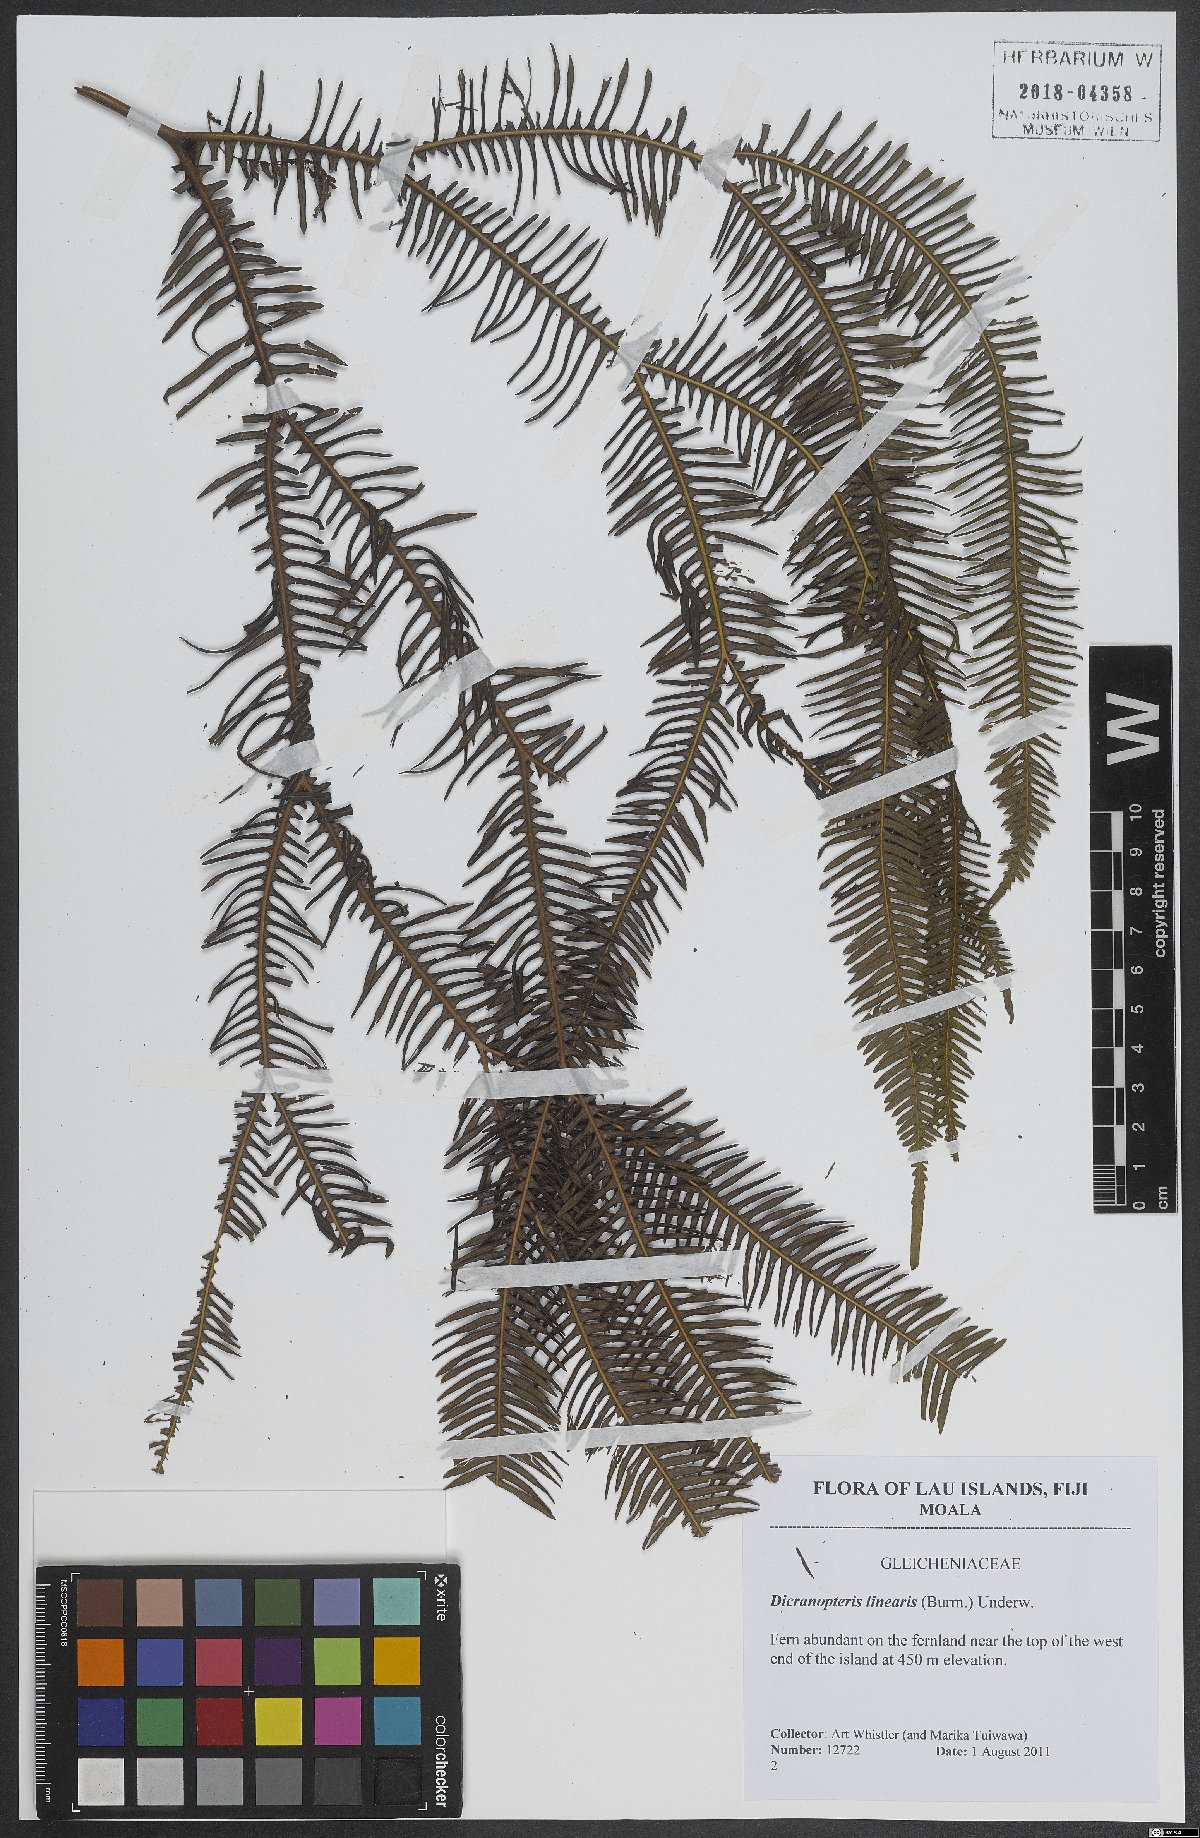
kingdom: Plantae
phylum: Tracheophyta
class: Polypodiopsida
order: Gleicheniales
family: Gleicheniaceae
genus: Dicranopteris
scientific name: Dicranopteris linearis
